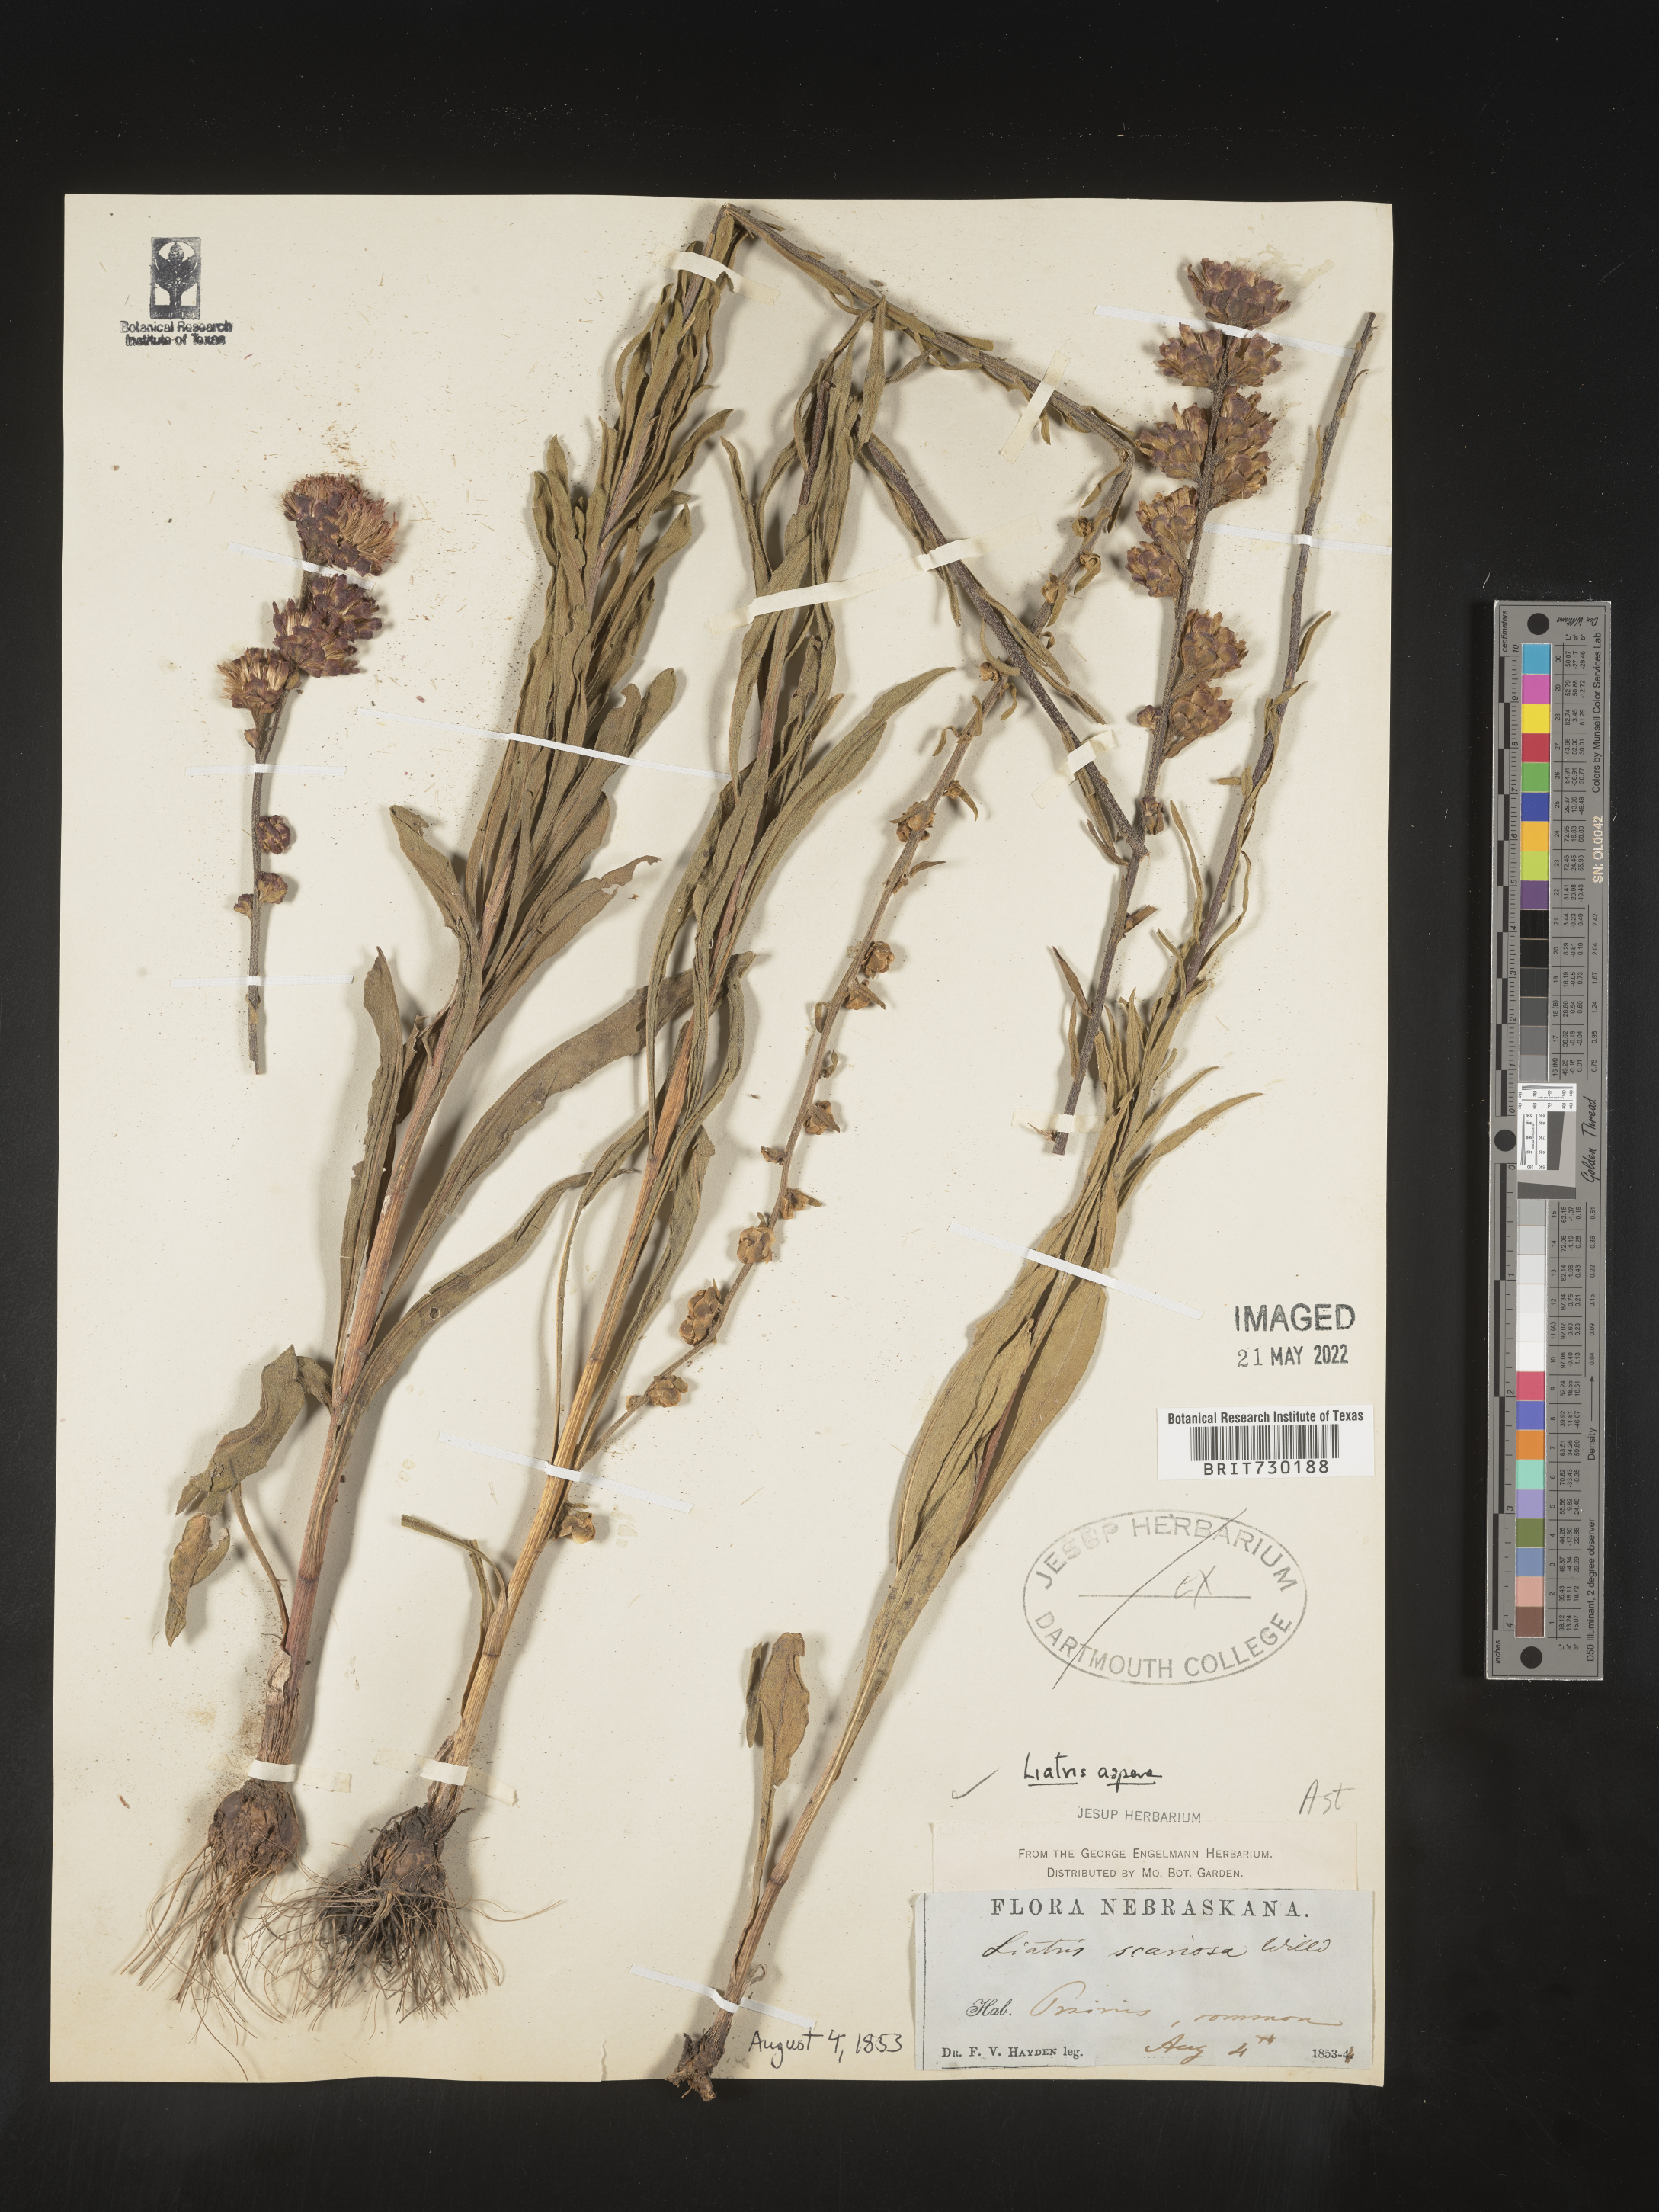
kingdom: Plantae
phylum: Tracheophyta
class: Magnoliopsida
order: Asterales
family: Asteraceae
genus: Liatris
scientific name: Liatris aspera
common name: Lacerate blazing-star
